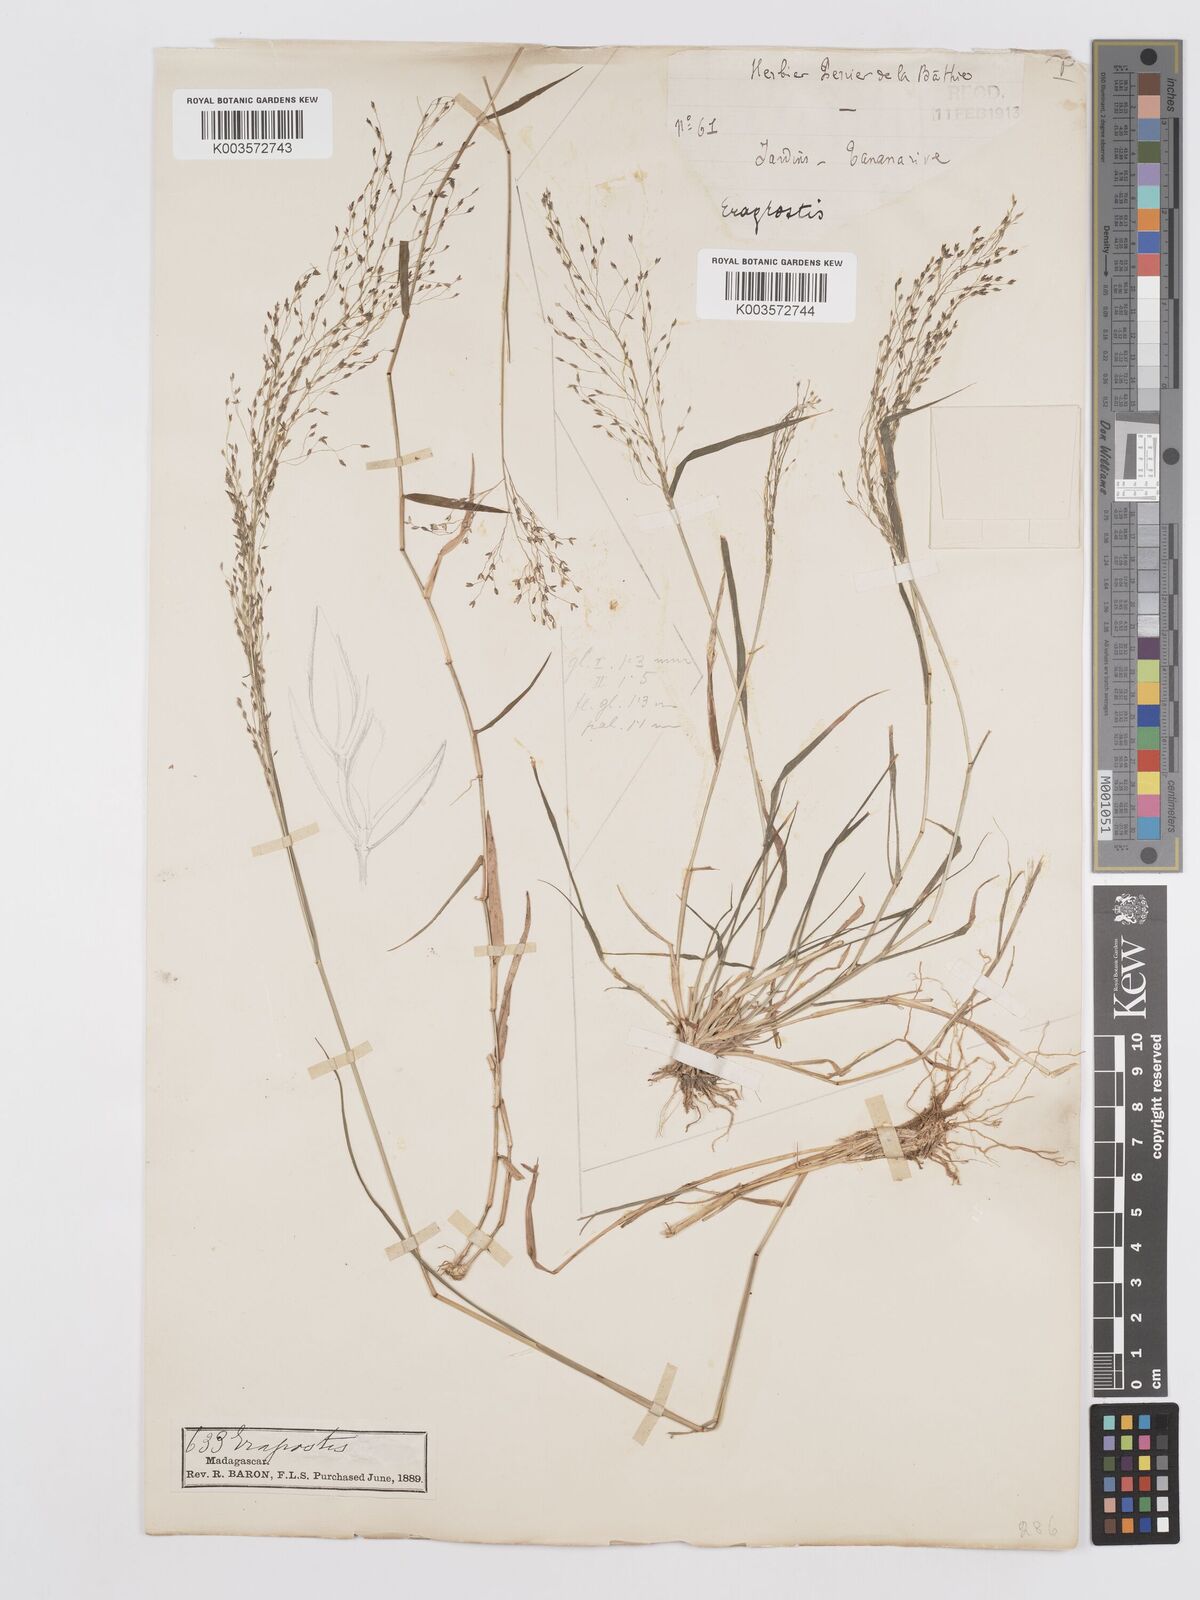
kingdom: Plantae
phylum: Tracheophyta
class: Liliopsida
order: Poales
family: Poaceae
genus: Eragrostis
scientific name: Eragrostis
